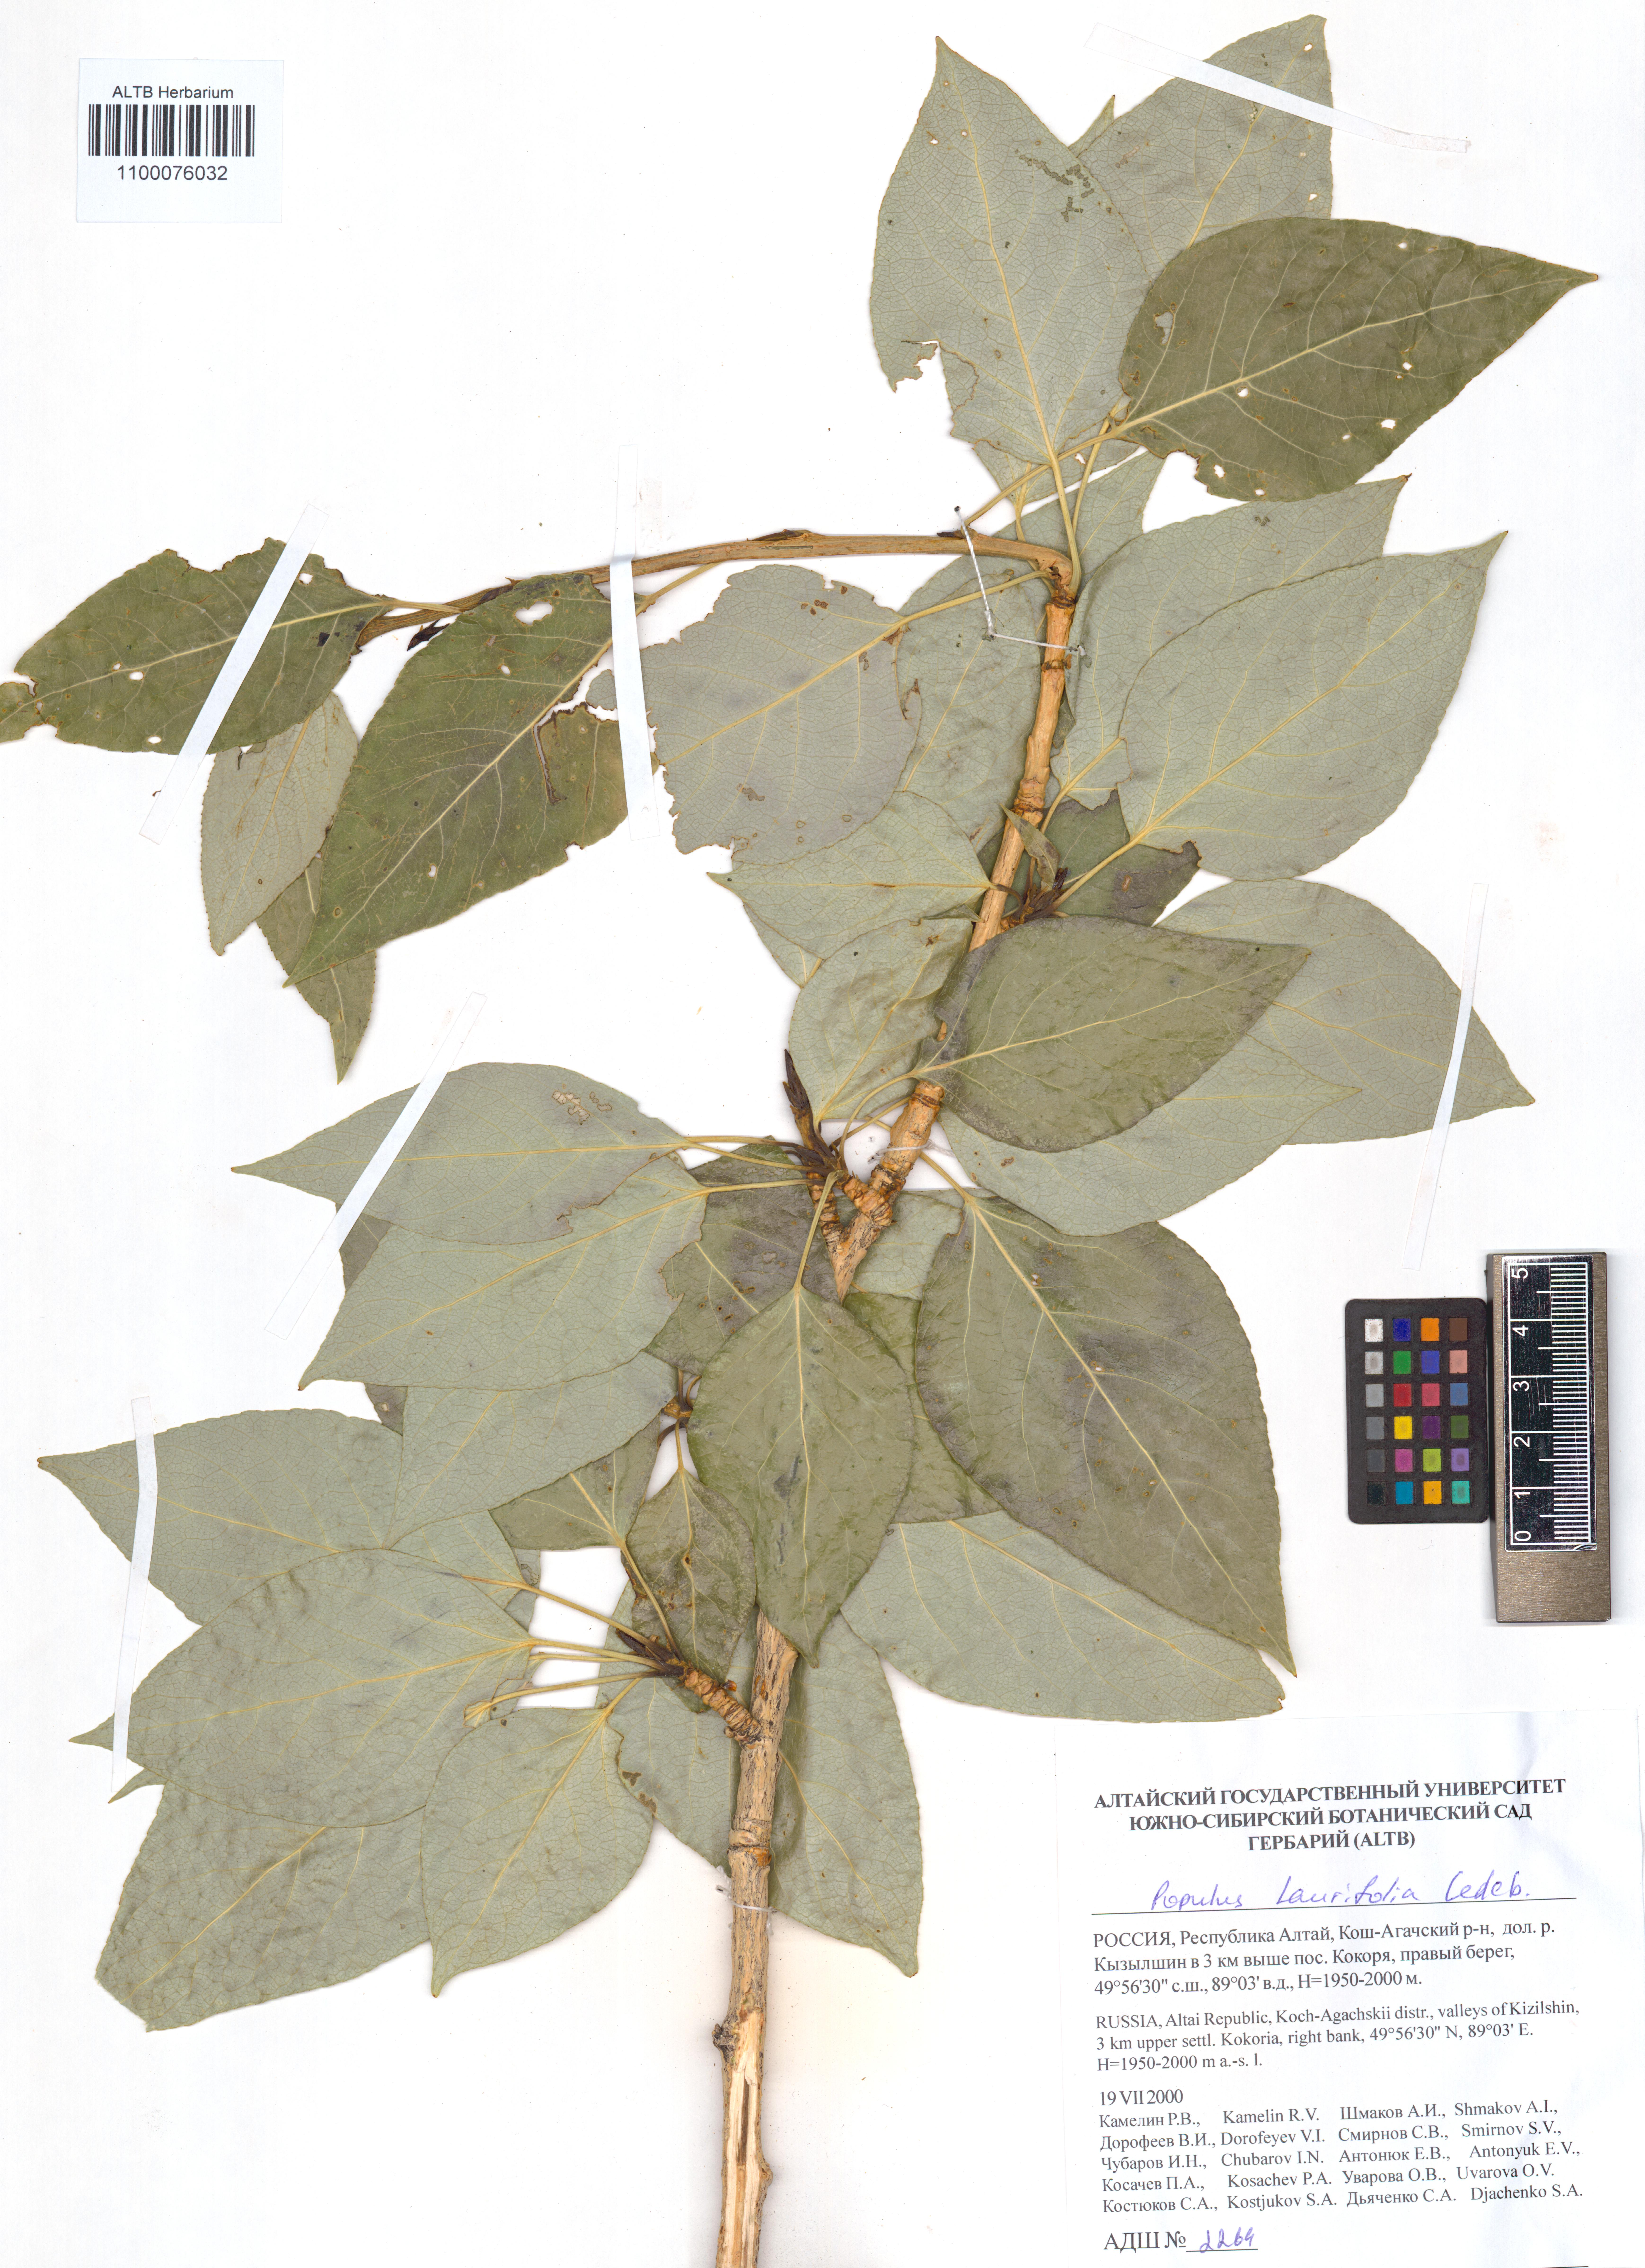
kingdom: Plantae
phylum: Tracheophyta
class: Magnoliopsida
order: Malpighiales
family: Salicaceae
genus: Populus
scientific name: Populus laurifolia
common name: Laurel-leaf poplar
